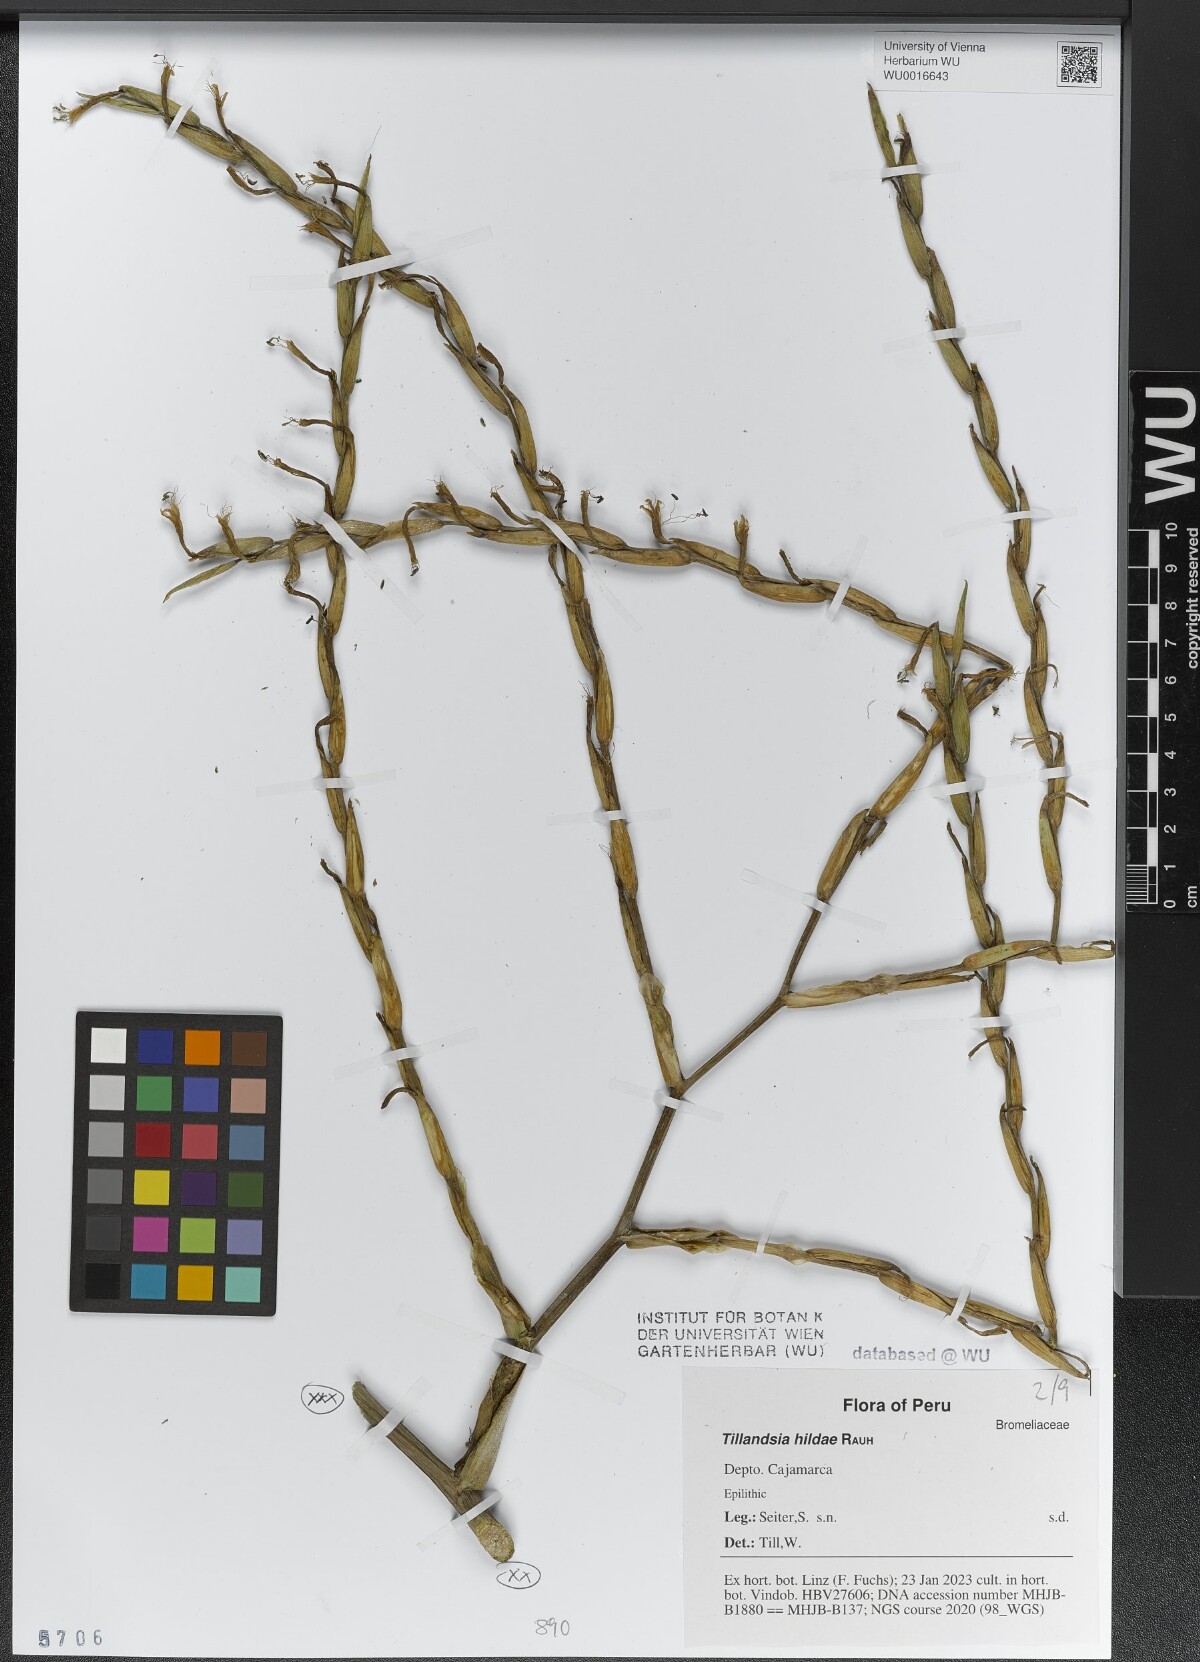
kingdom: Plantae
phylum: Tracheophyta
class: Liliopsida
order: Poales
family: Bromeliaceae
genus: Tillandsia
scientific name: Tillandsia hildae
